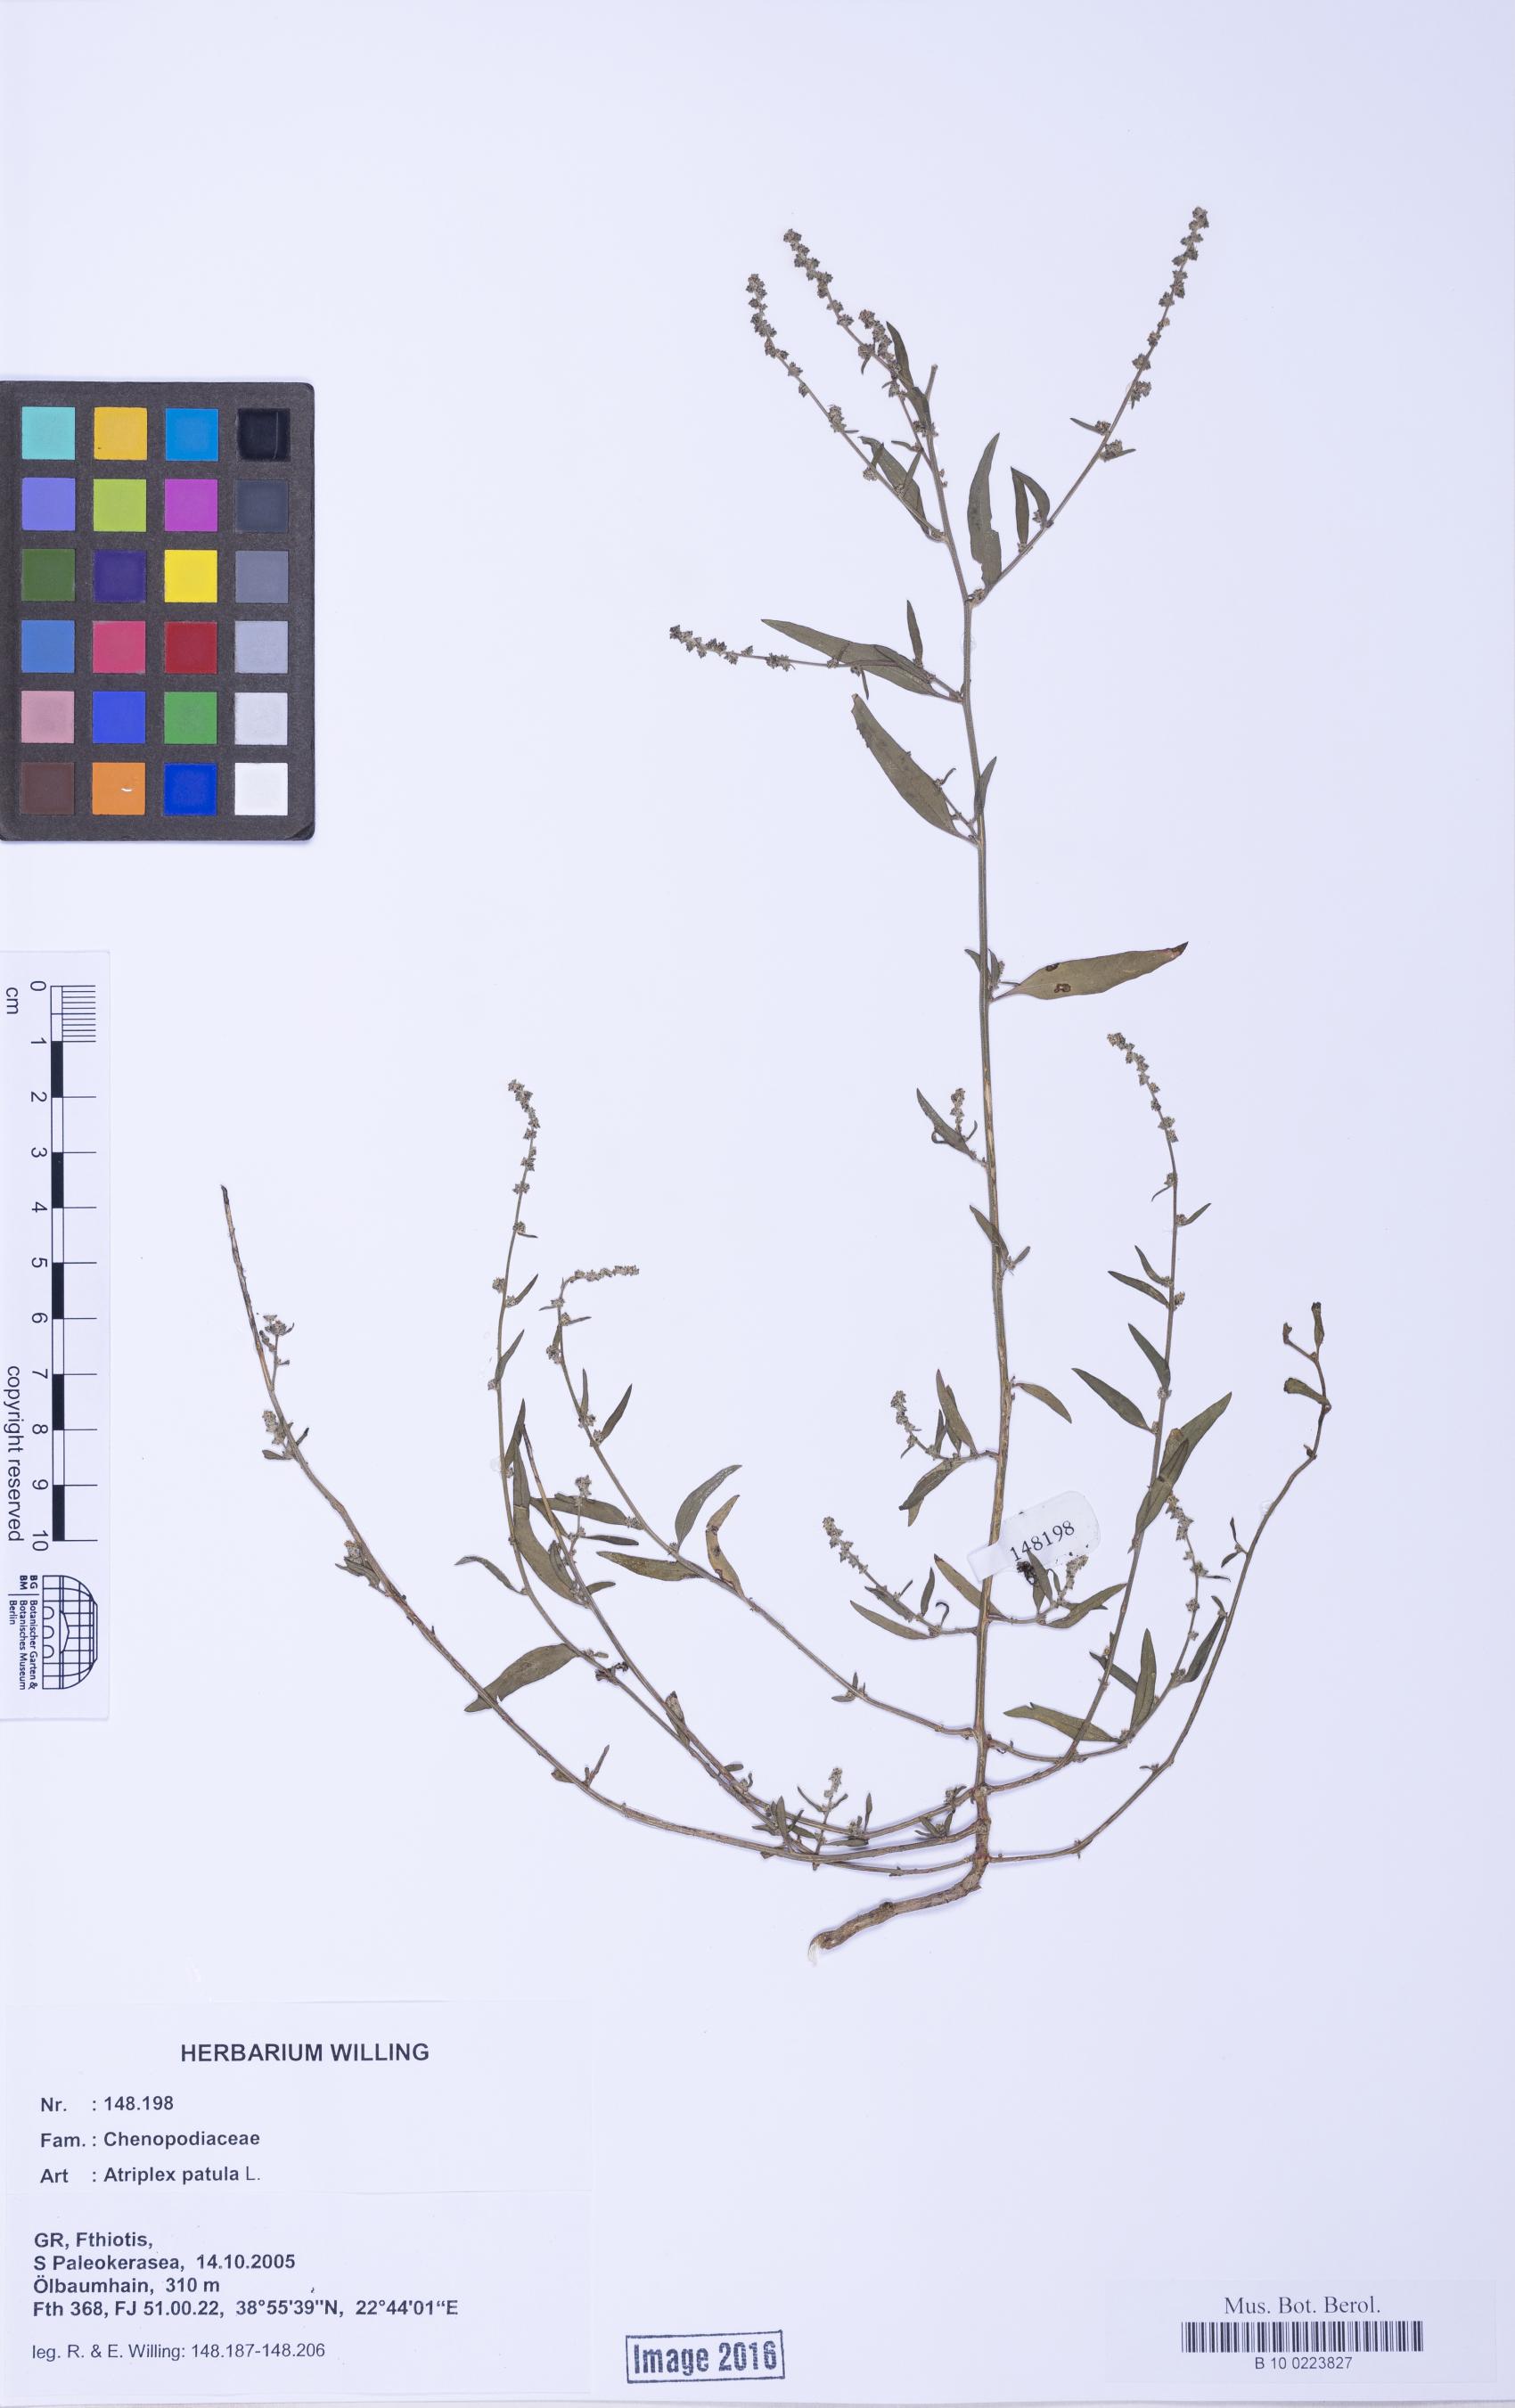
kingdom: Plantae
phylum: Tracheophyta
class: Magnoliopsida
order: Caryophyllales
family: Amaranthaceae
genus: Atriplex
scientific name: Atriplex patula
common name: Common orache
